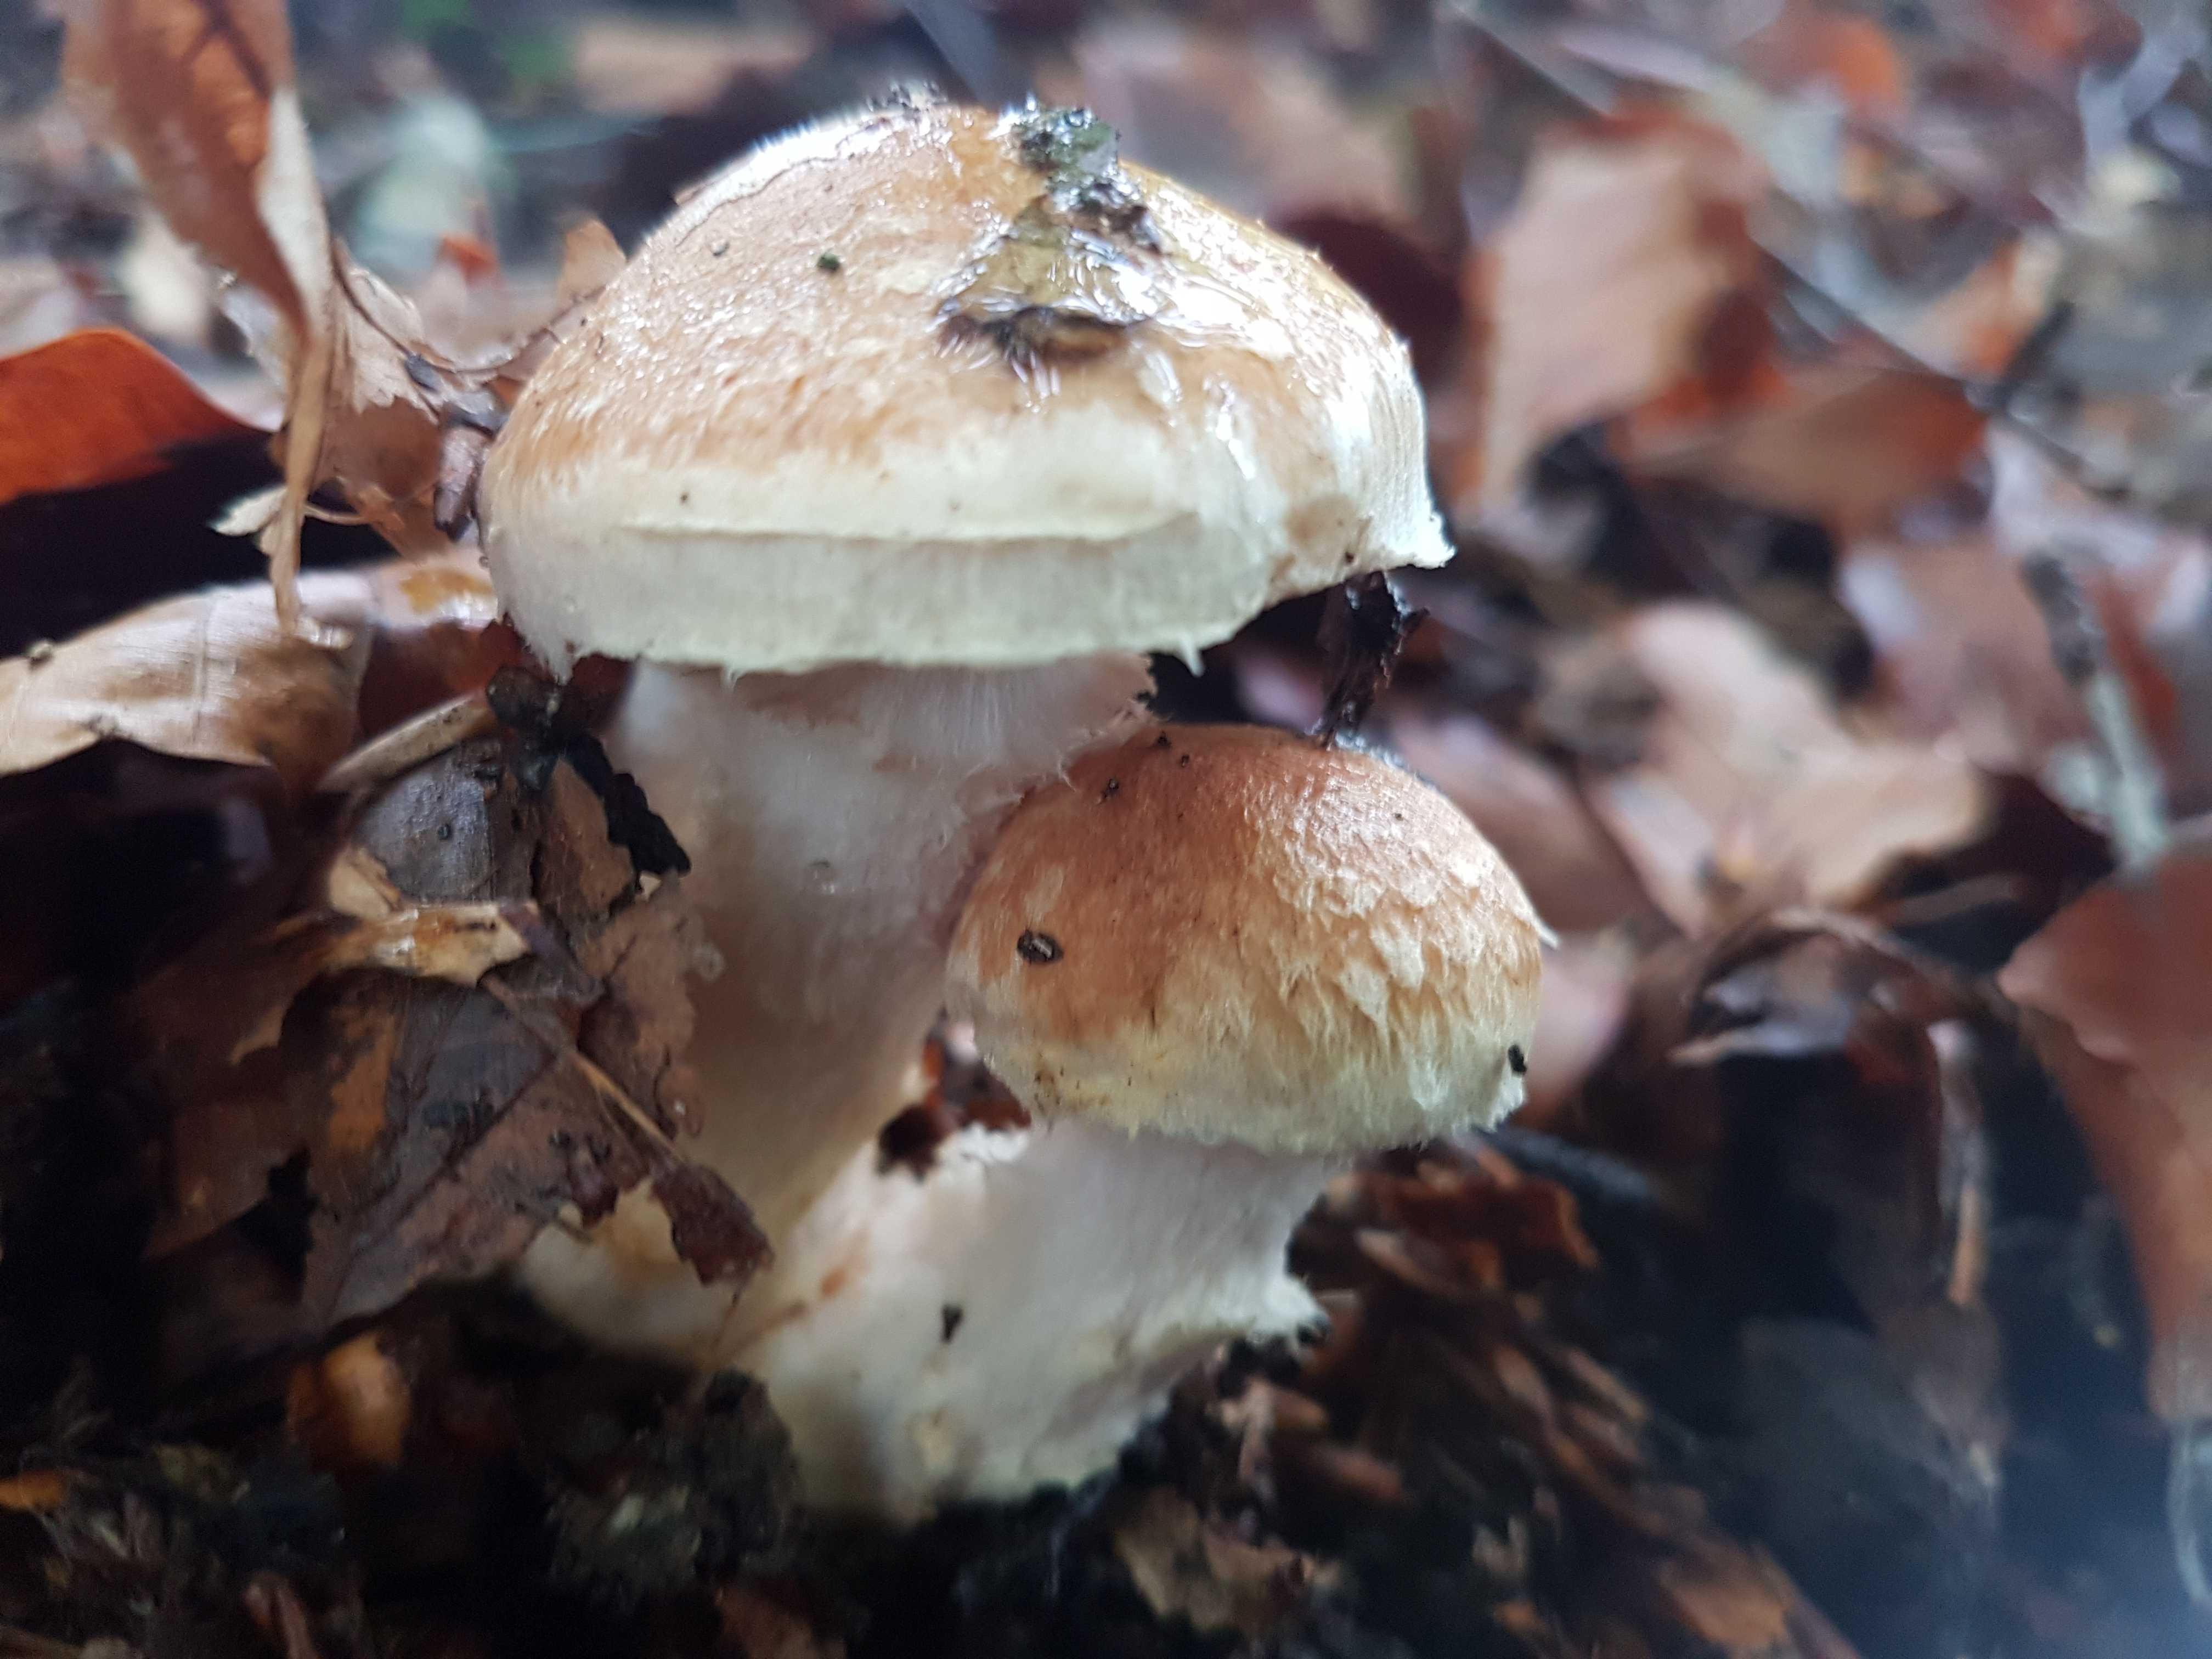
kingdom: Fungi
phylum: Basidiomycota
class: Agaricomycetes
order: Agaricales
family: Cortinariaceae
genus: Phlegmacium
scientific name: Phlegmacium vulpinum
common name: ringbæltet slørhat
